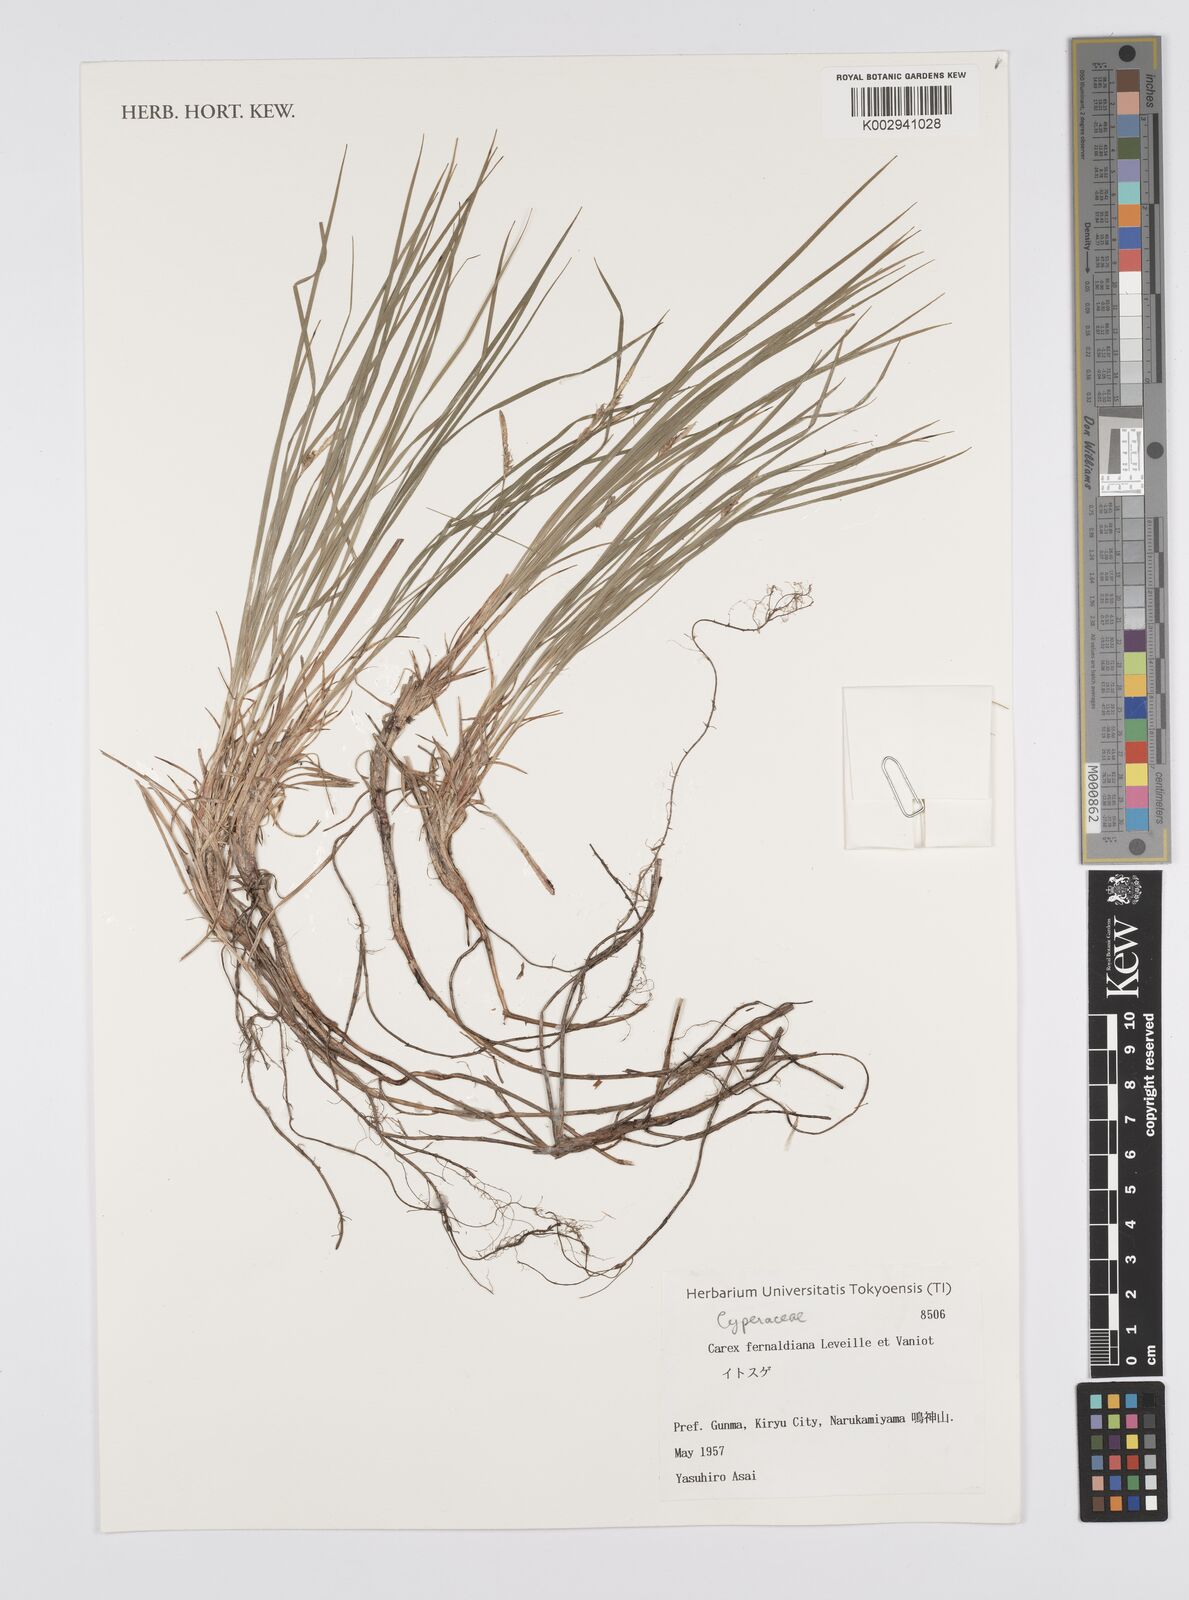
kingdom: Plantae
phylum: Tracheophyta
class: Liliopsida
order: Poales
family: Cyperaceae
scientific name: Cyperaceae
